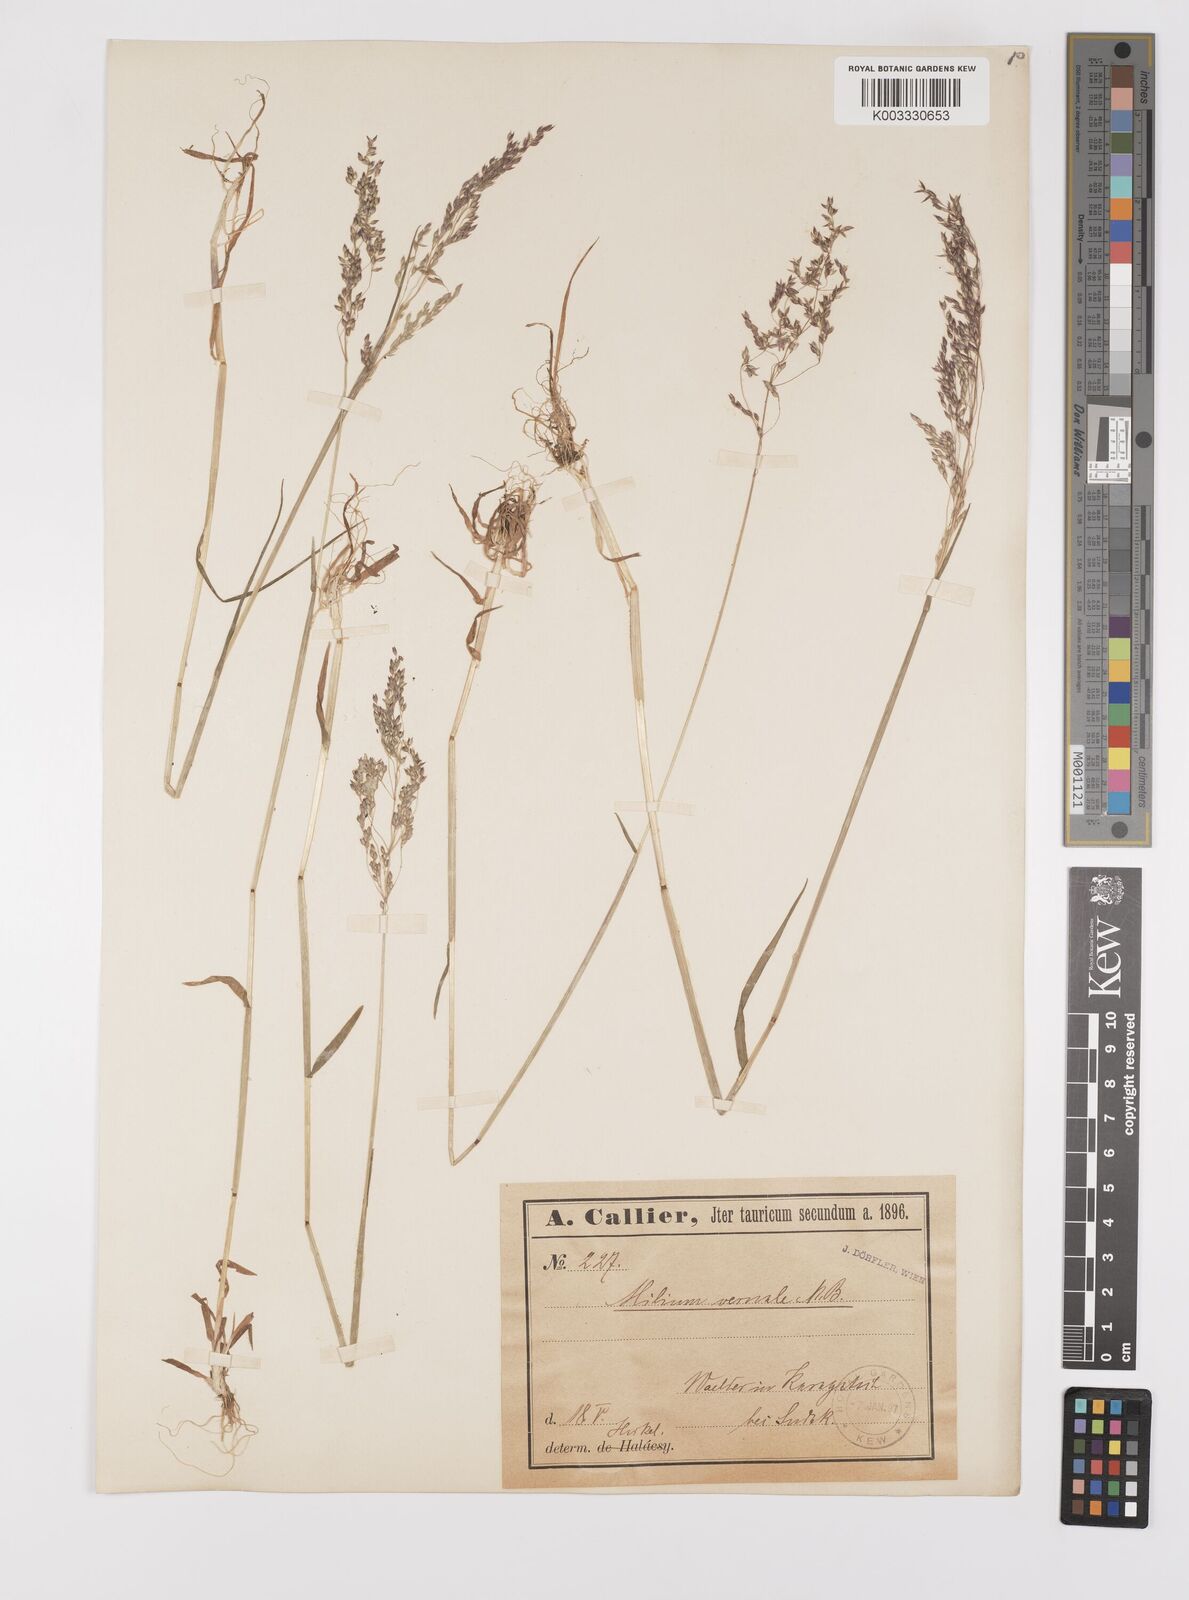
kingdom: Plantae
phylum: Tracheophyta
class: Liliopsida
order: Poales
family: Poaceae
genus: Milium
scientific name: Milium vernale
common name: Early millet
